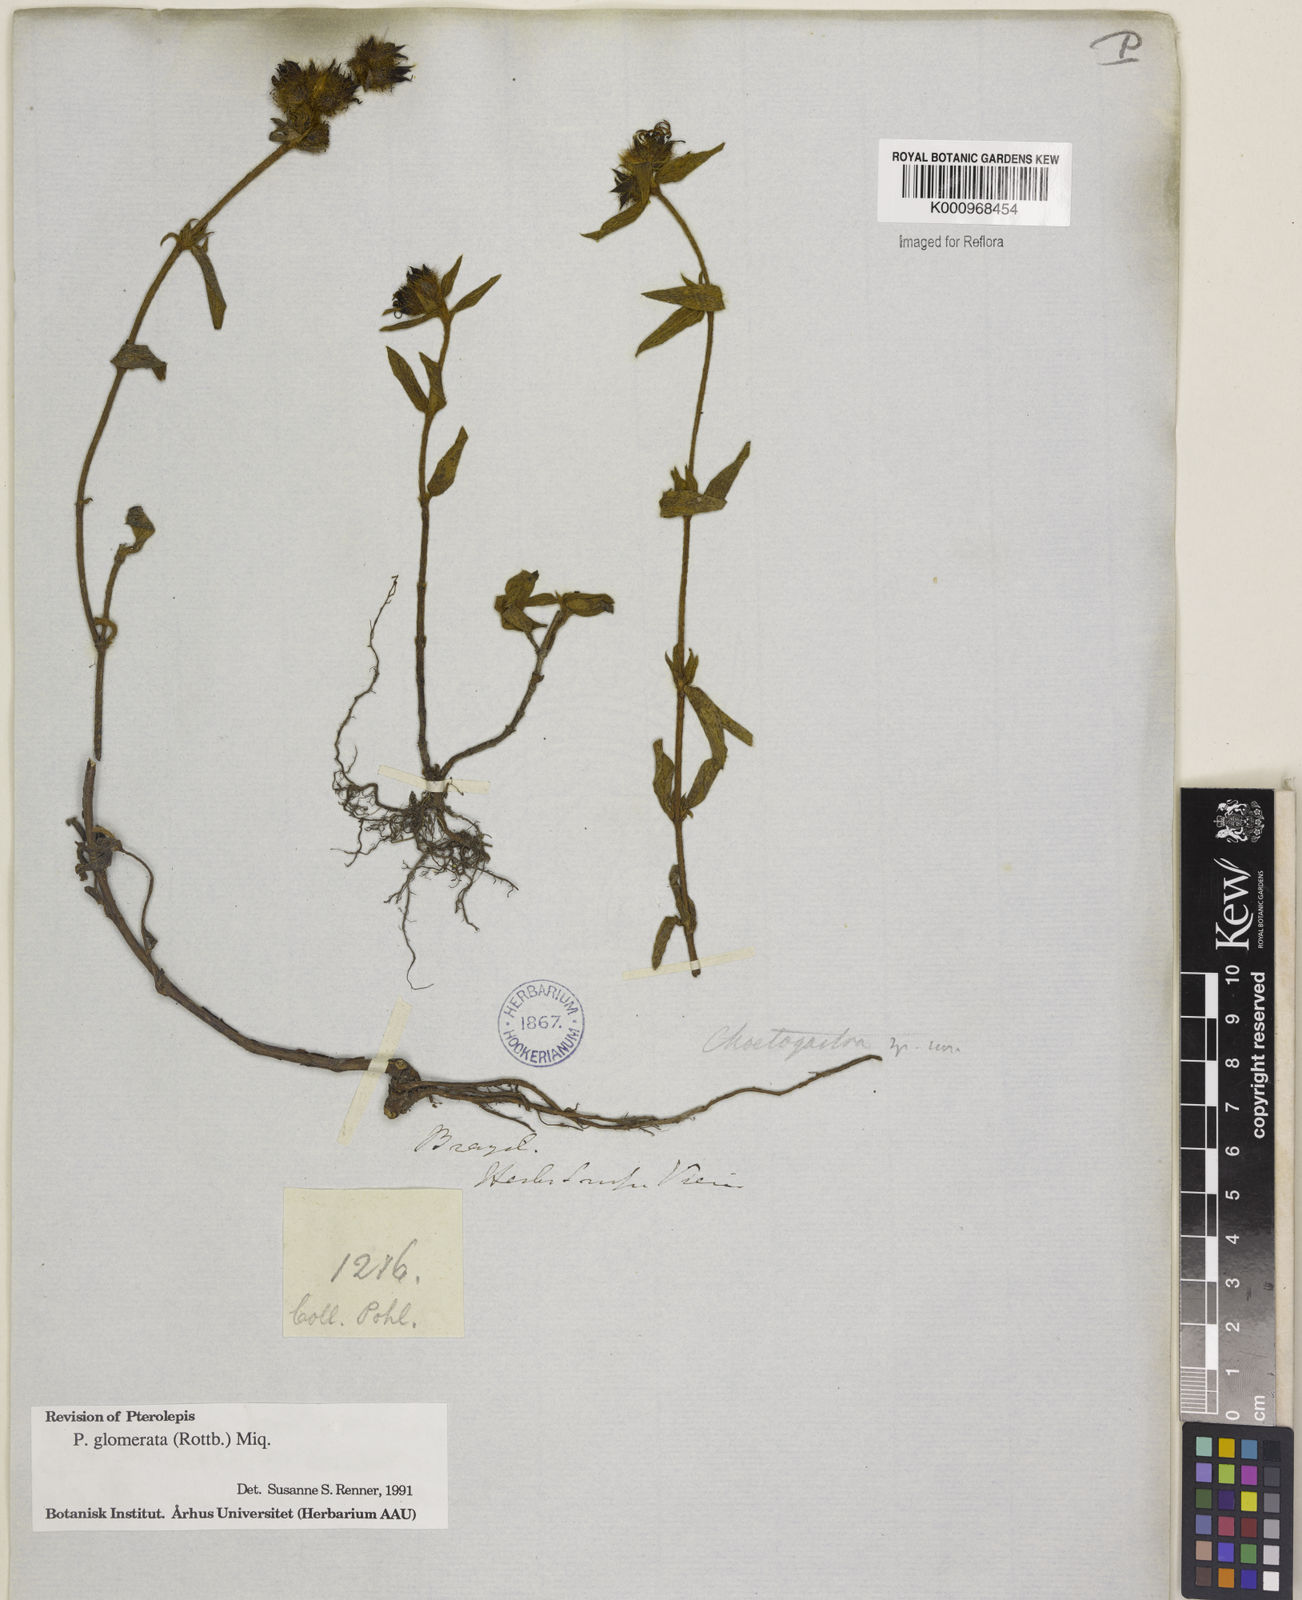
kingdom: Plantae
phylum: Tracheophyta
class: Magnoliopsida
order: Myrtales
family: Melastomataceae
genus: Pterolepis
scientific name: Pterolepis glomerata
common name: False meadowbeauty
